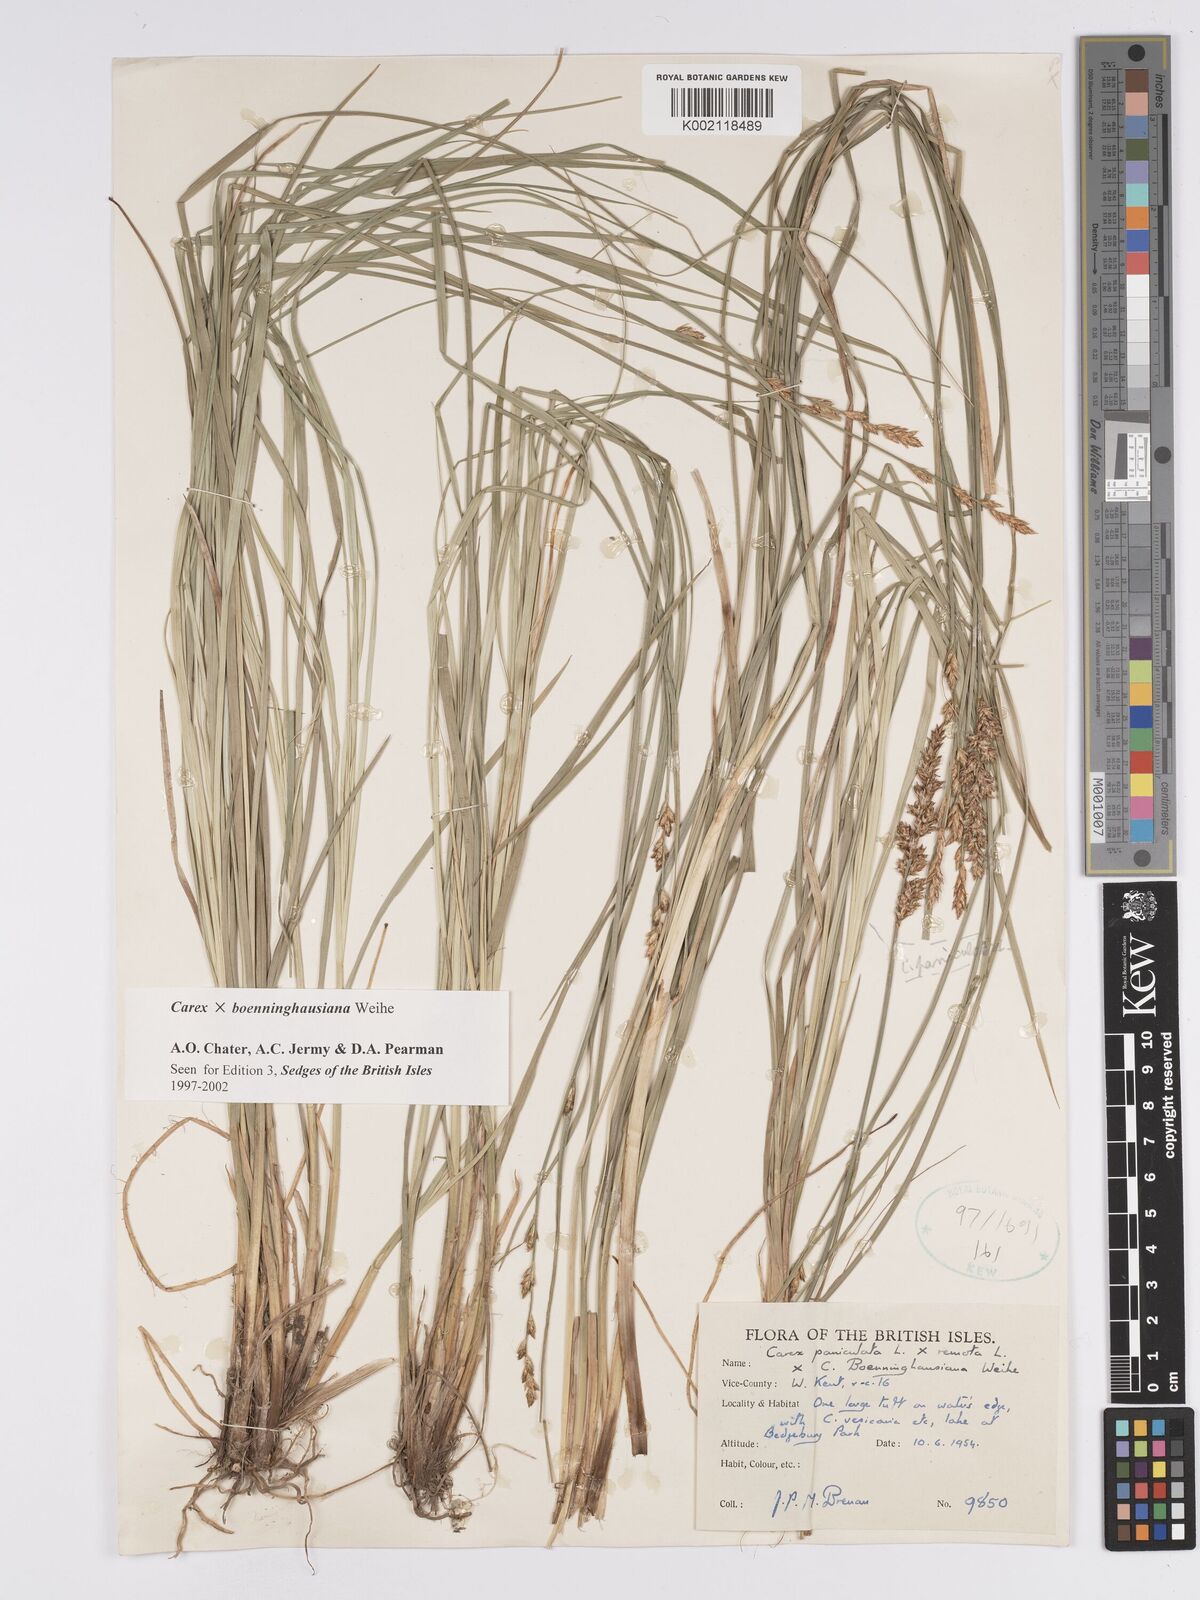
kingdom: Plantae
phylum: Tracheophyta
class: Liliopsida
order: Poales
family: Cyperaceae
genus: Carex
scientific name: Carex boenninghausiana
